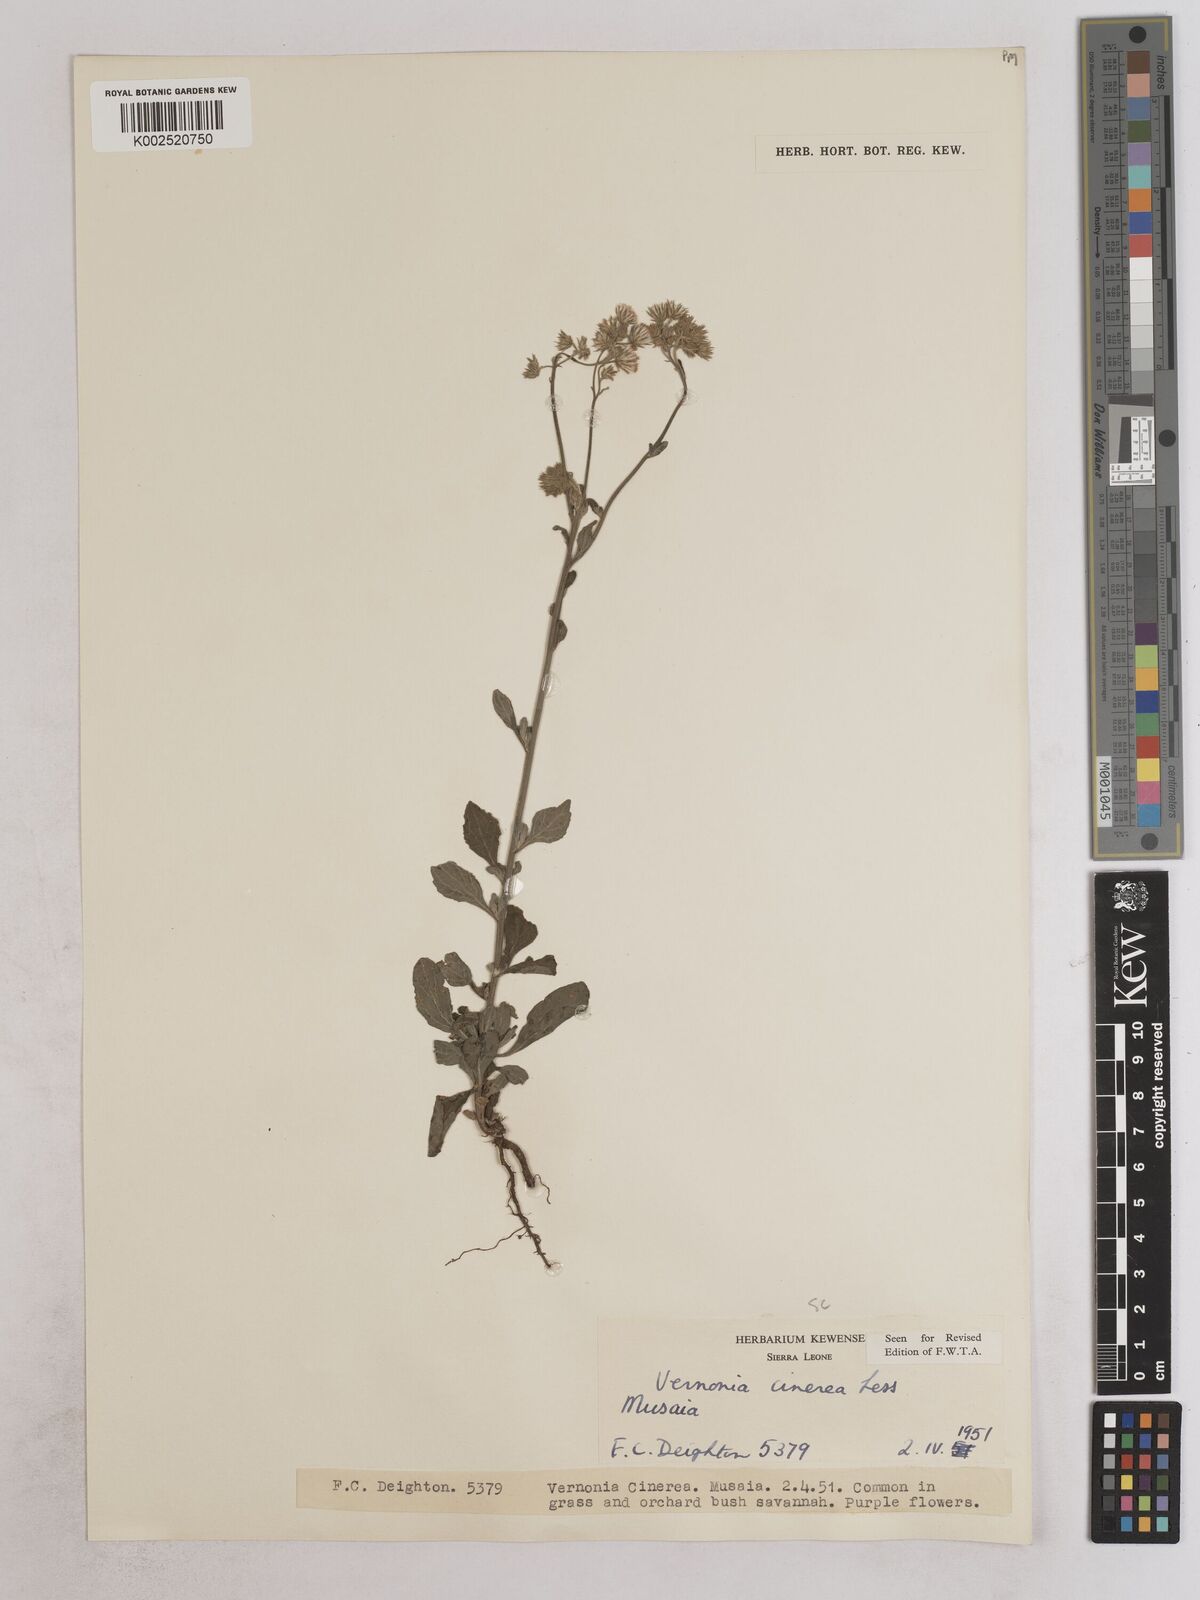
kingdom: Plantae
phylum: Tracheophyta
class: Magnoliopsida
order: Asterales
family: Asteraceae
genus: Cyanthillium
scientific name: Cyanthillium cinereum
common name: Little ironweed
